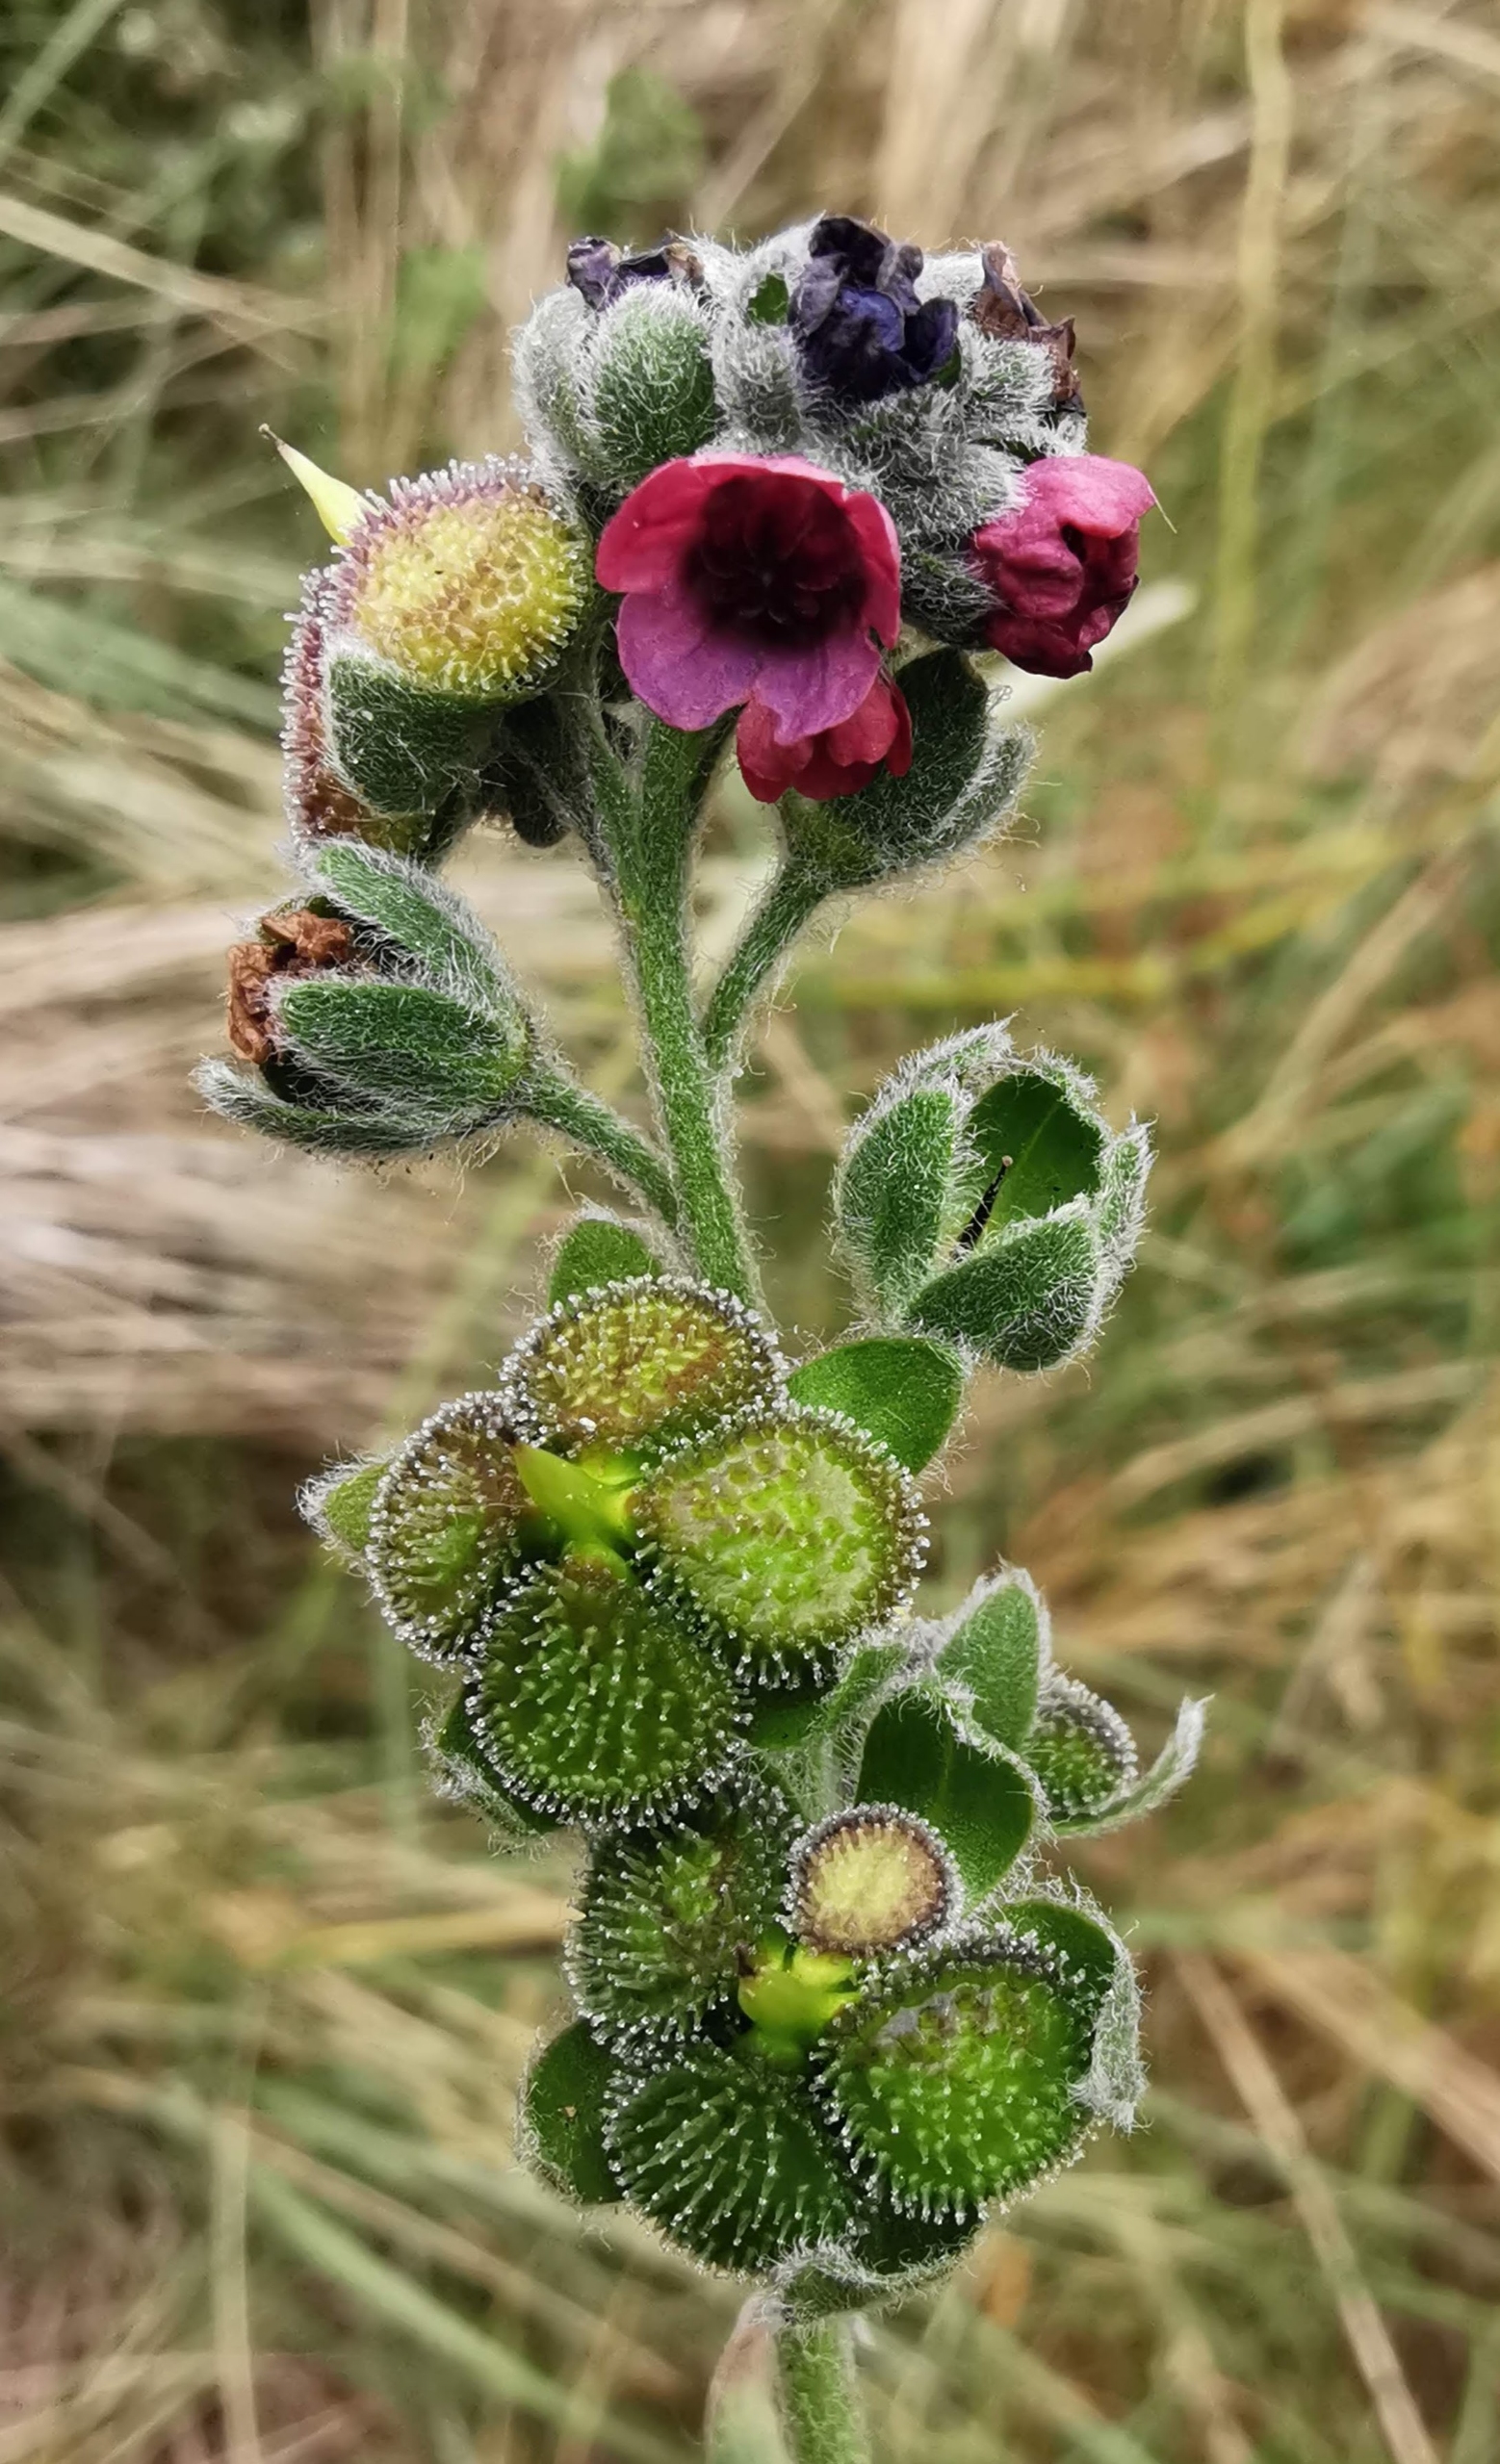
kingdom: Plantae
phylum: Tracheophyta
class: Magnoliopsida
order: Boraginales
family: Boraginaceae
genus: Cynoglossum
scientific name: Cynoglossum officinale
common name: Hundetunge
